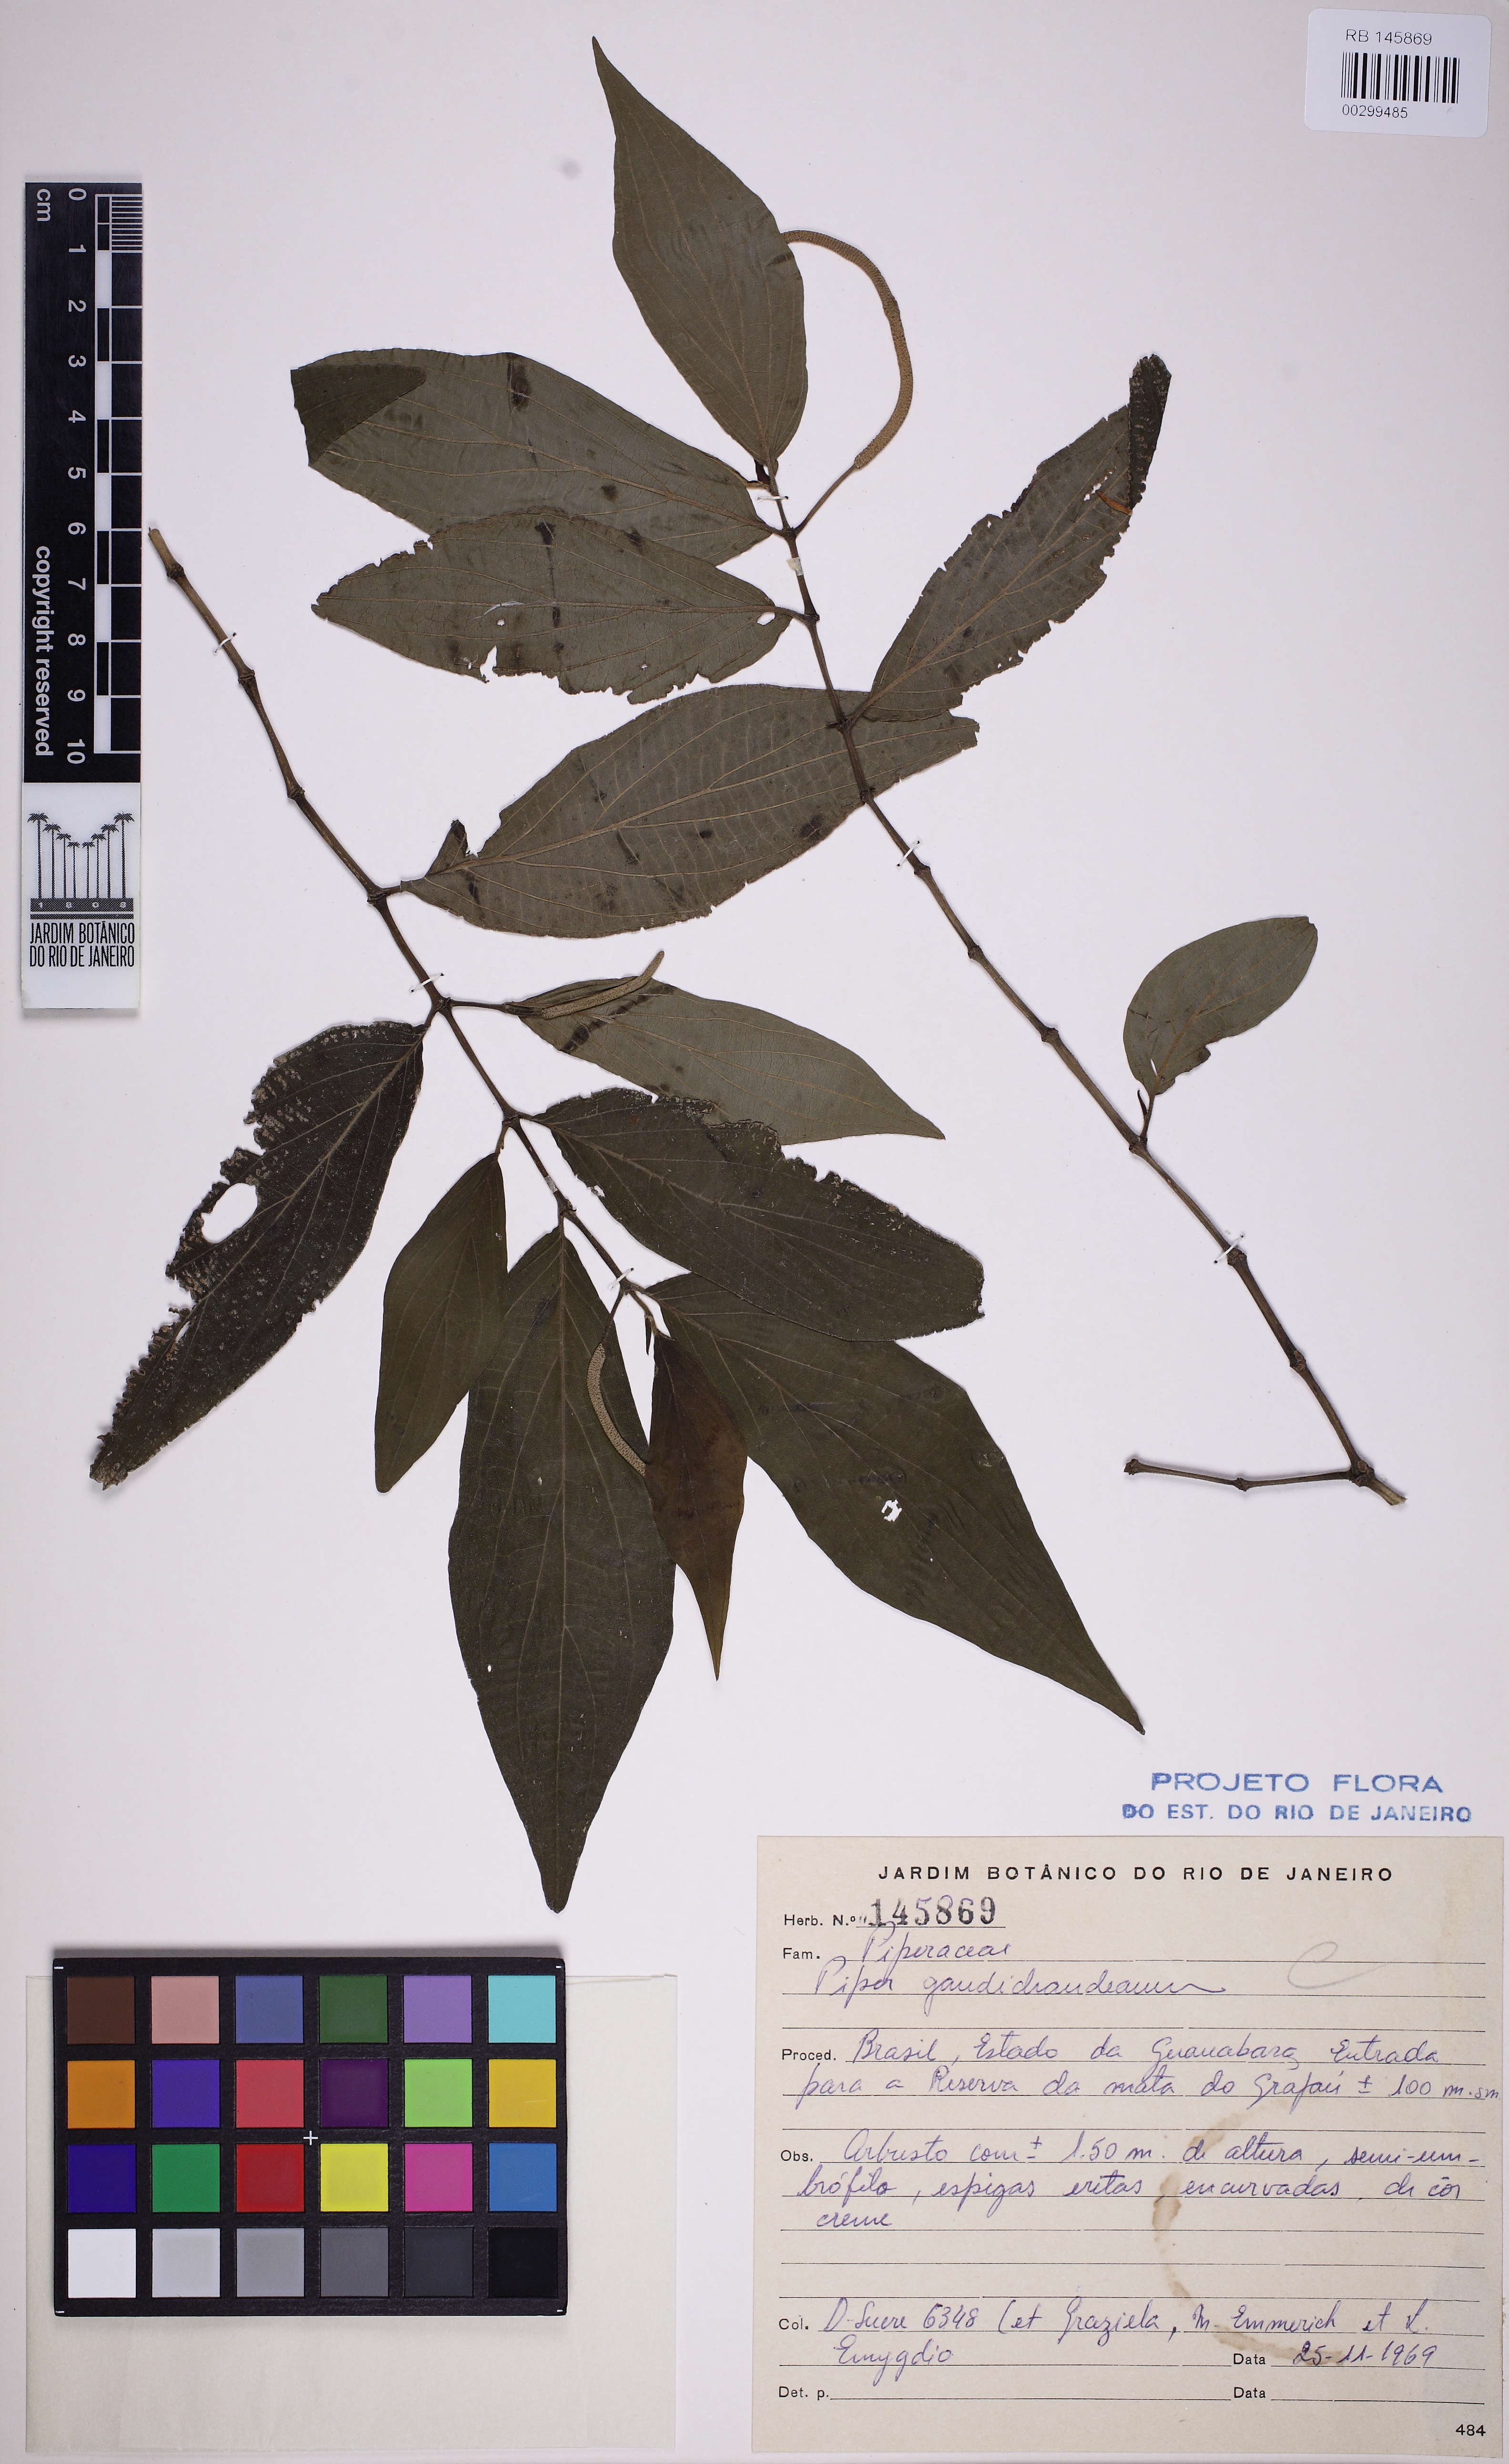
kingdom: Plantae
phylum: Tracheophyta
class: Magnoliopsida
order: Piperales
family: Piperaceae
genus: Piper
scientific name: Piper gaudichaudianum
